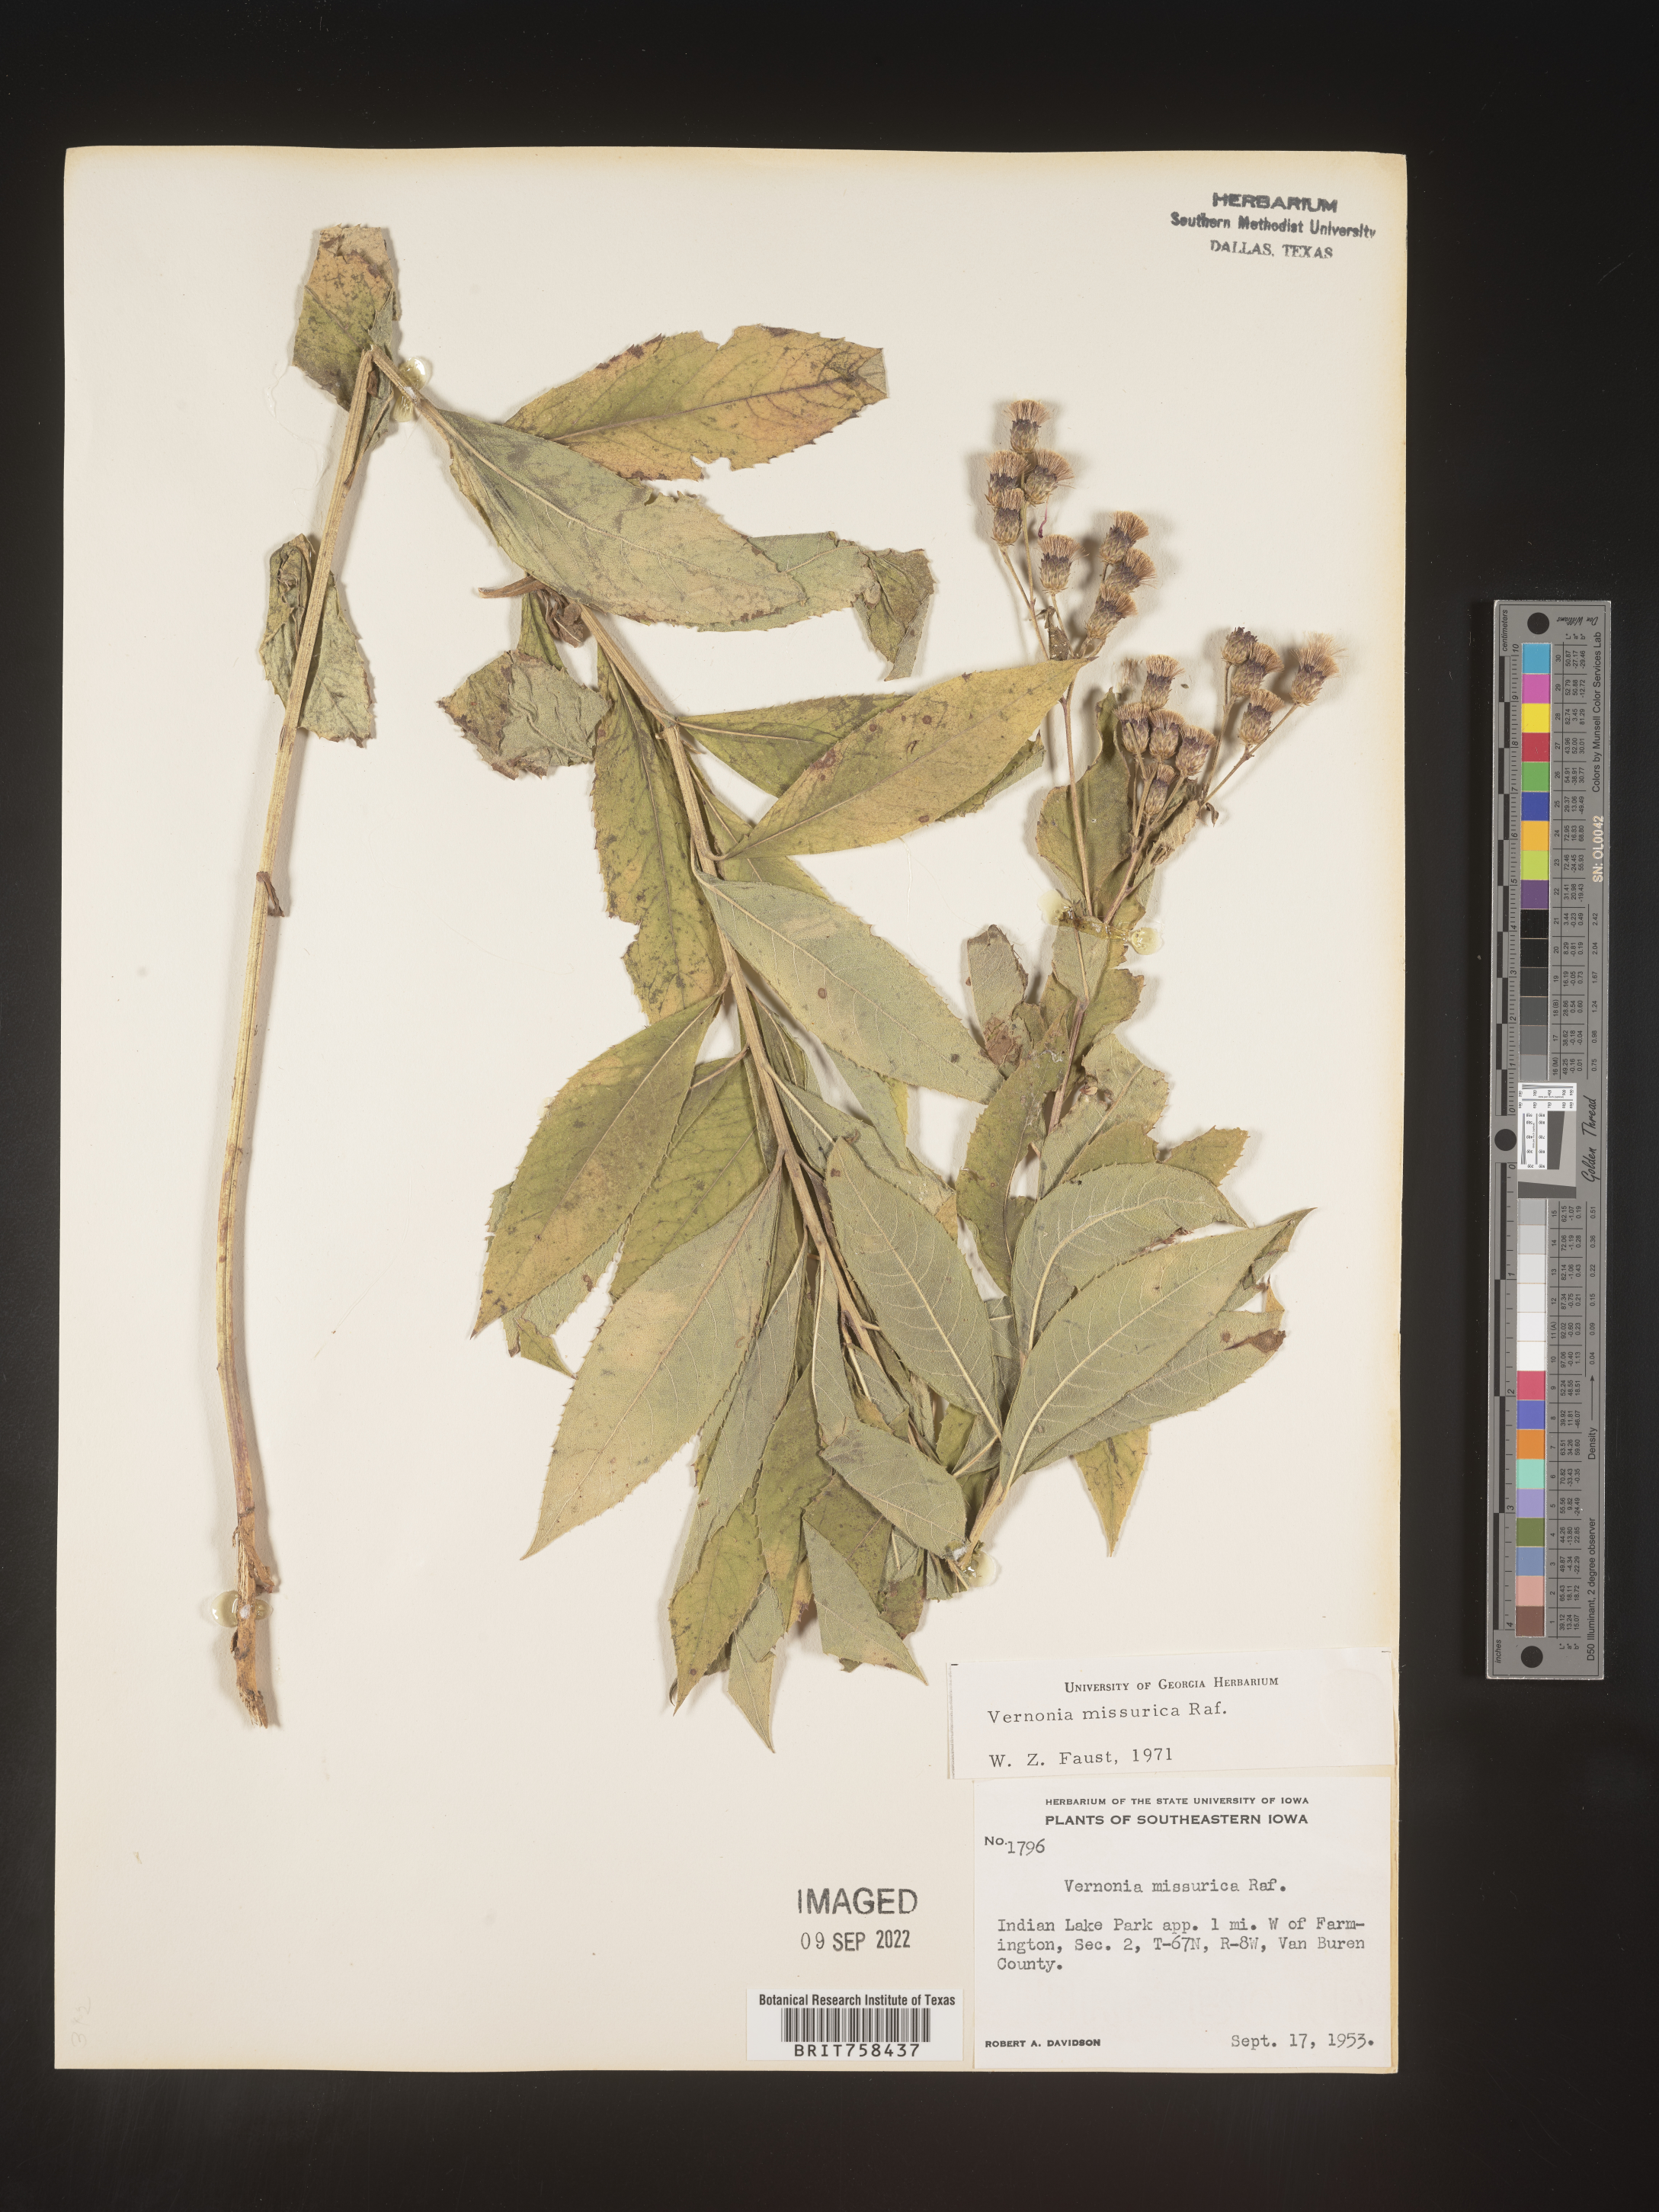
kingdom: Plantae
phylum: Tracheophyta
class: Magnoliopsida
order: Asterales
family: Asteraceae
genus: Vernonia
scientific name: Vernonia missurica
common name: Missouri ironweed
